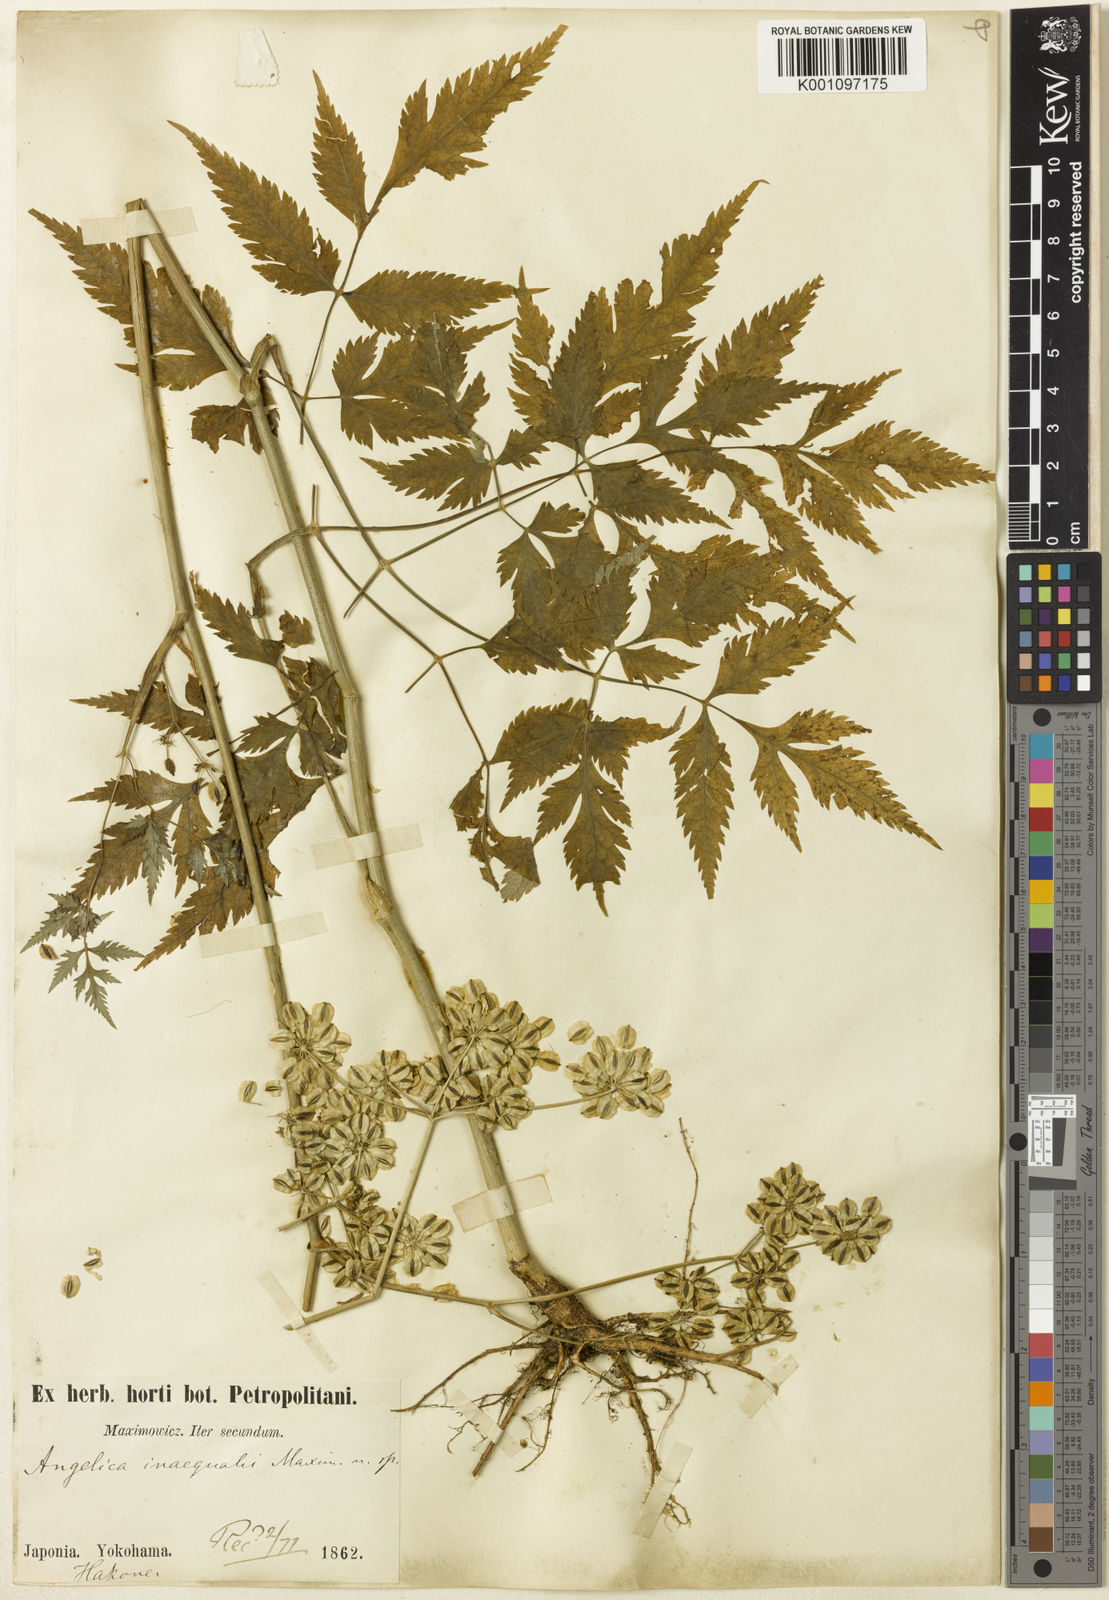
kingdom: Plantae
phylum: Tracheophyta
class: Magnoliopsida
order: Apiales
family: Apiaceae
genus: Angelica
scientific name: Angelica inaequalis
